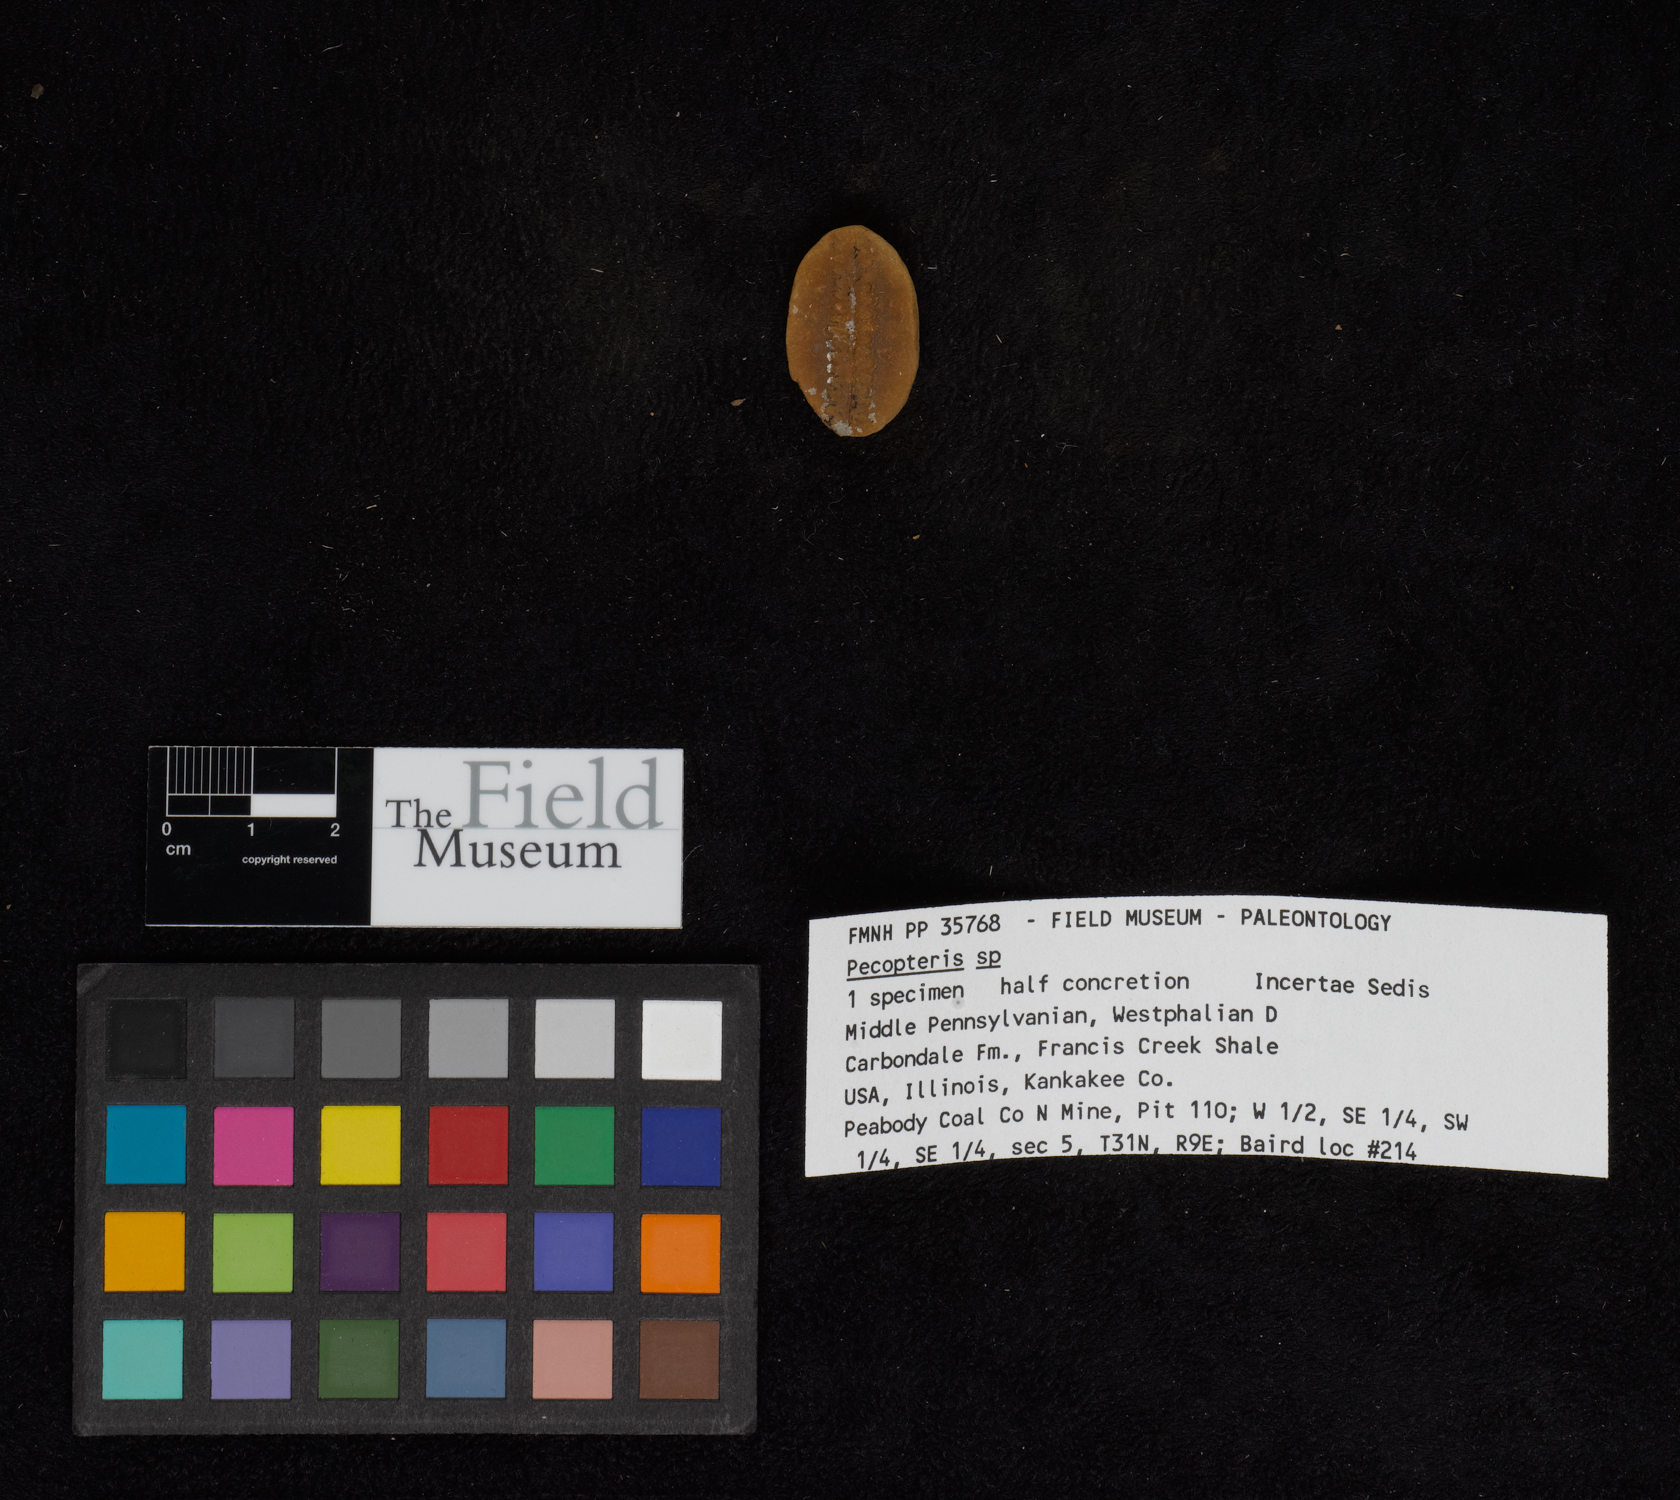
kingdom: Plantae
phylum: Tracheophyta
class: Polypodiopsida
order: Marattiales
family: Asterothecaceae
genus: Pecopteris
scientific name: Pecopteris
